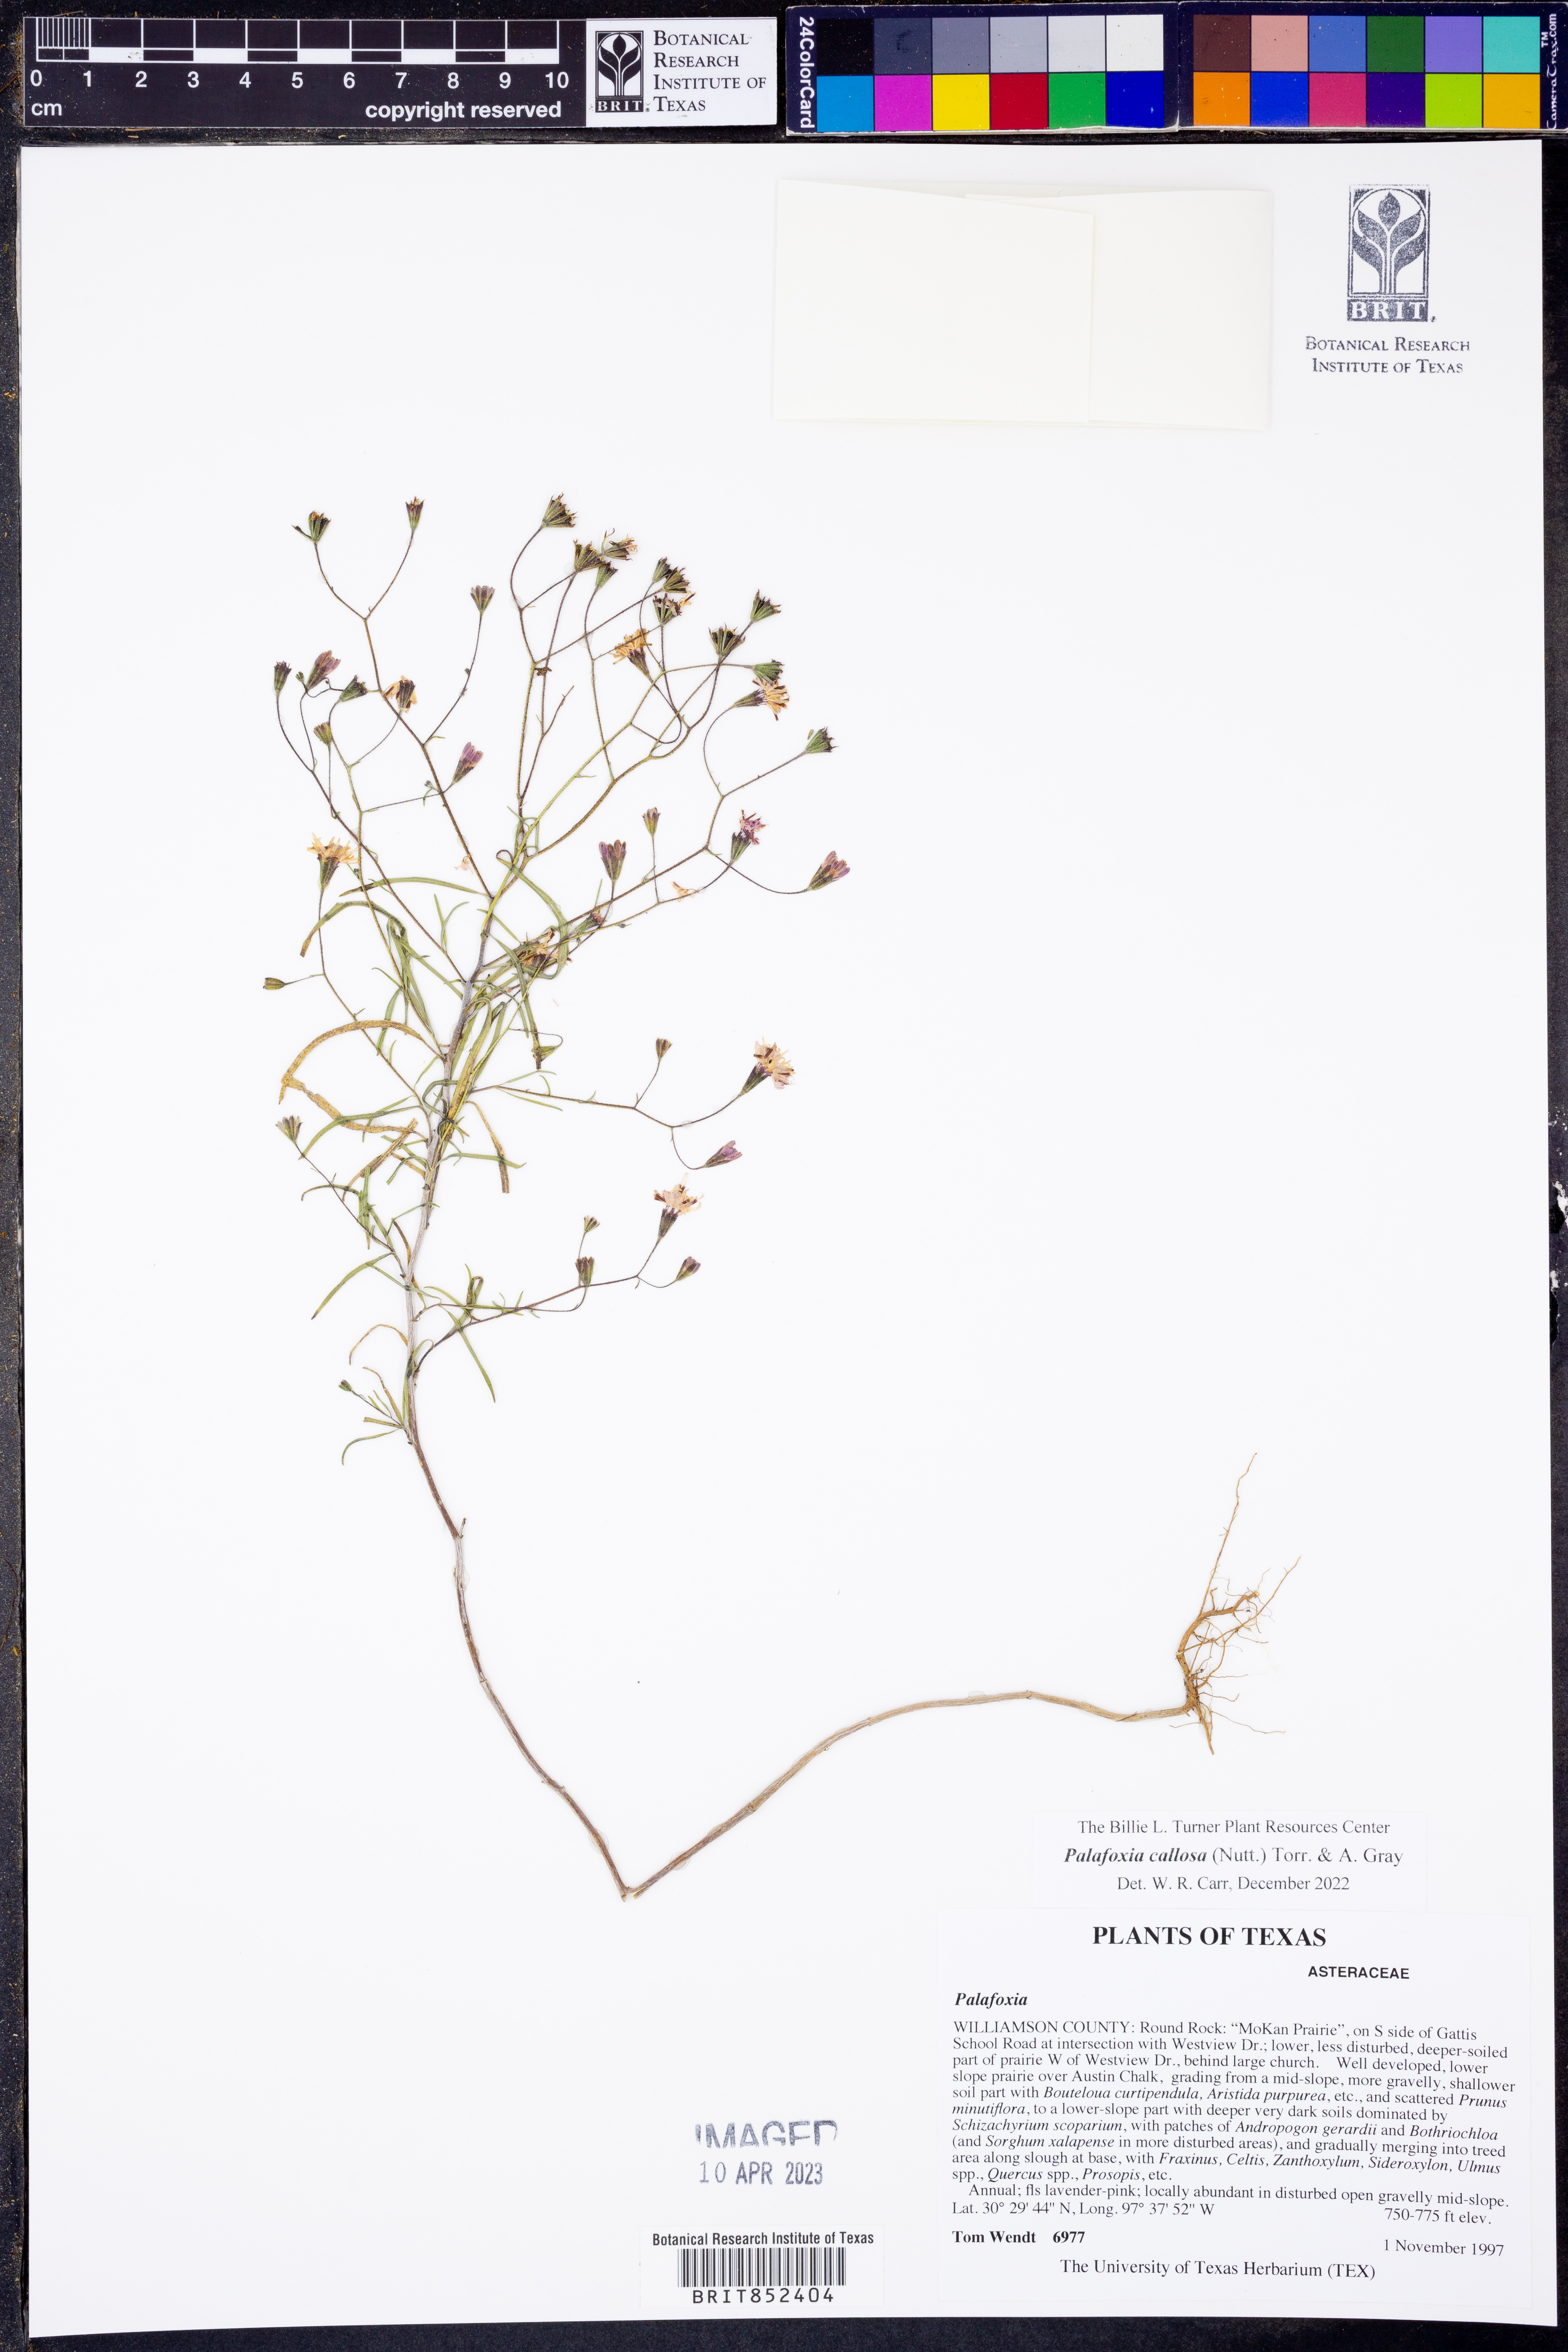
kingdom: Plantae
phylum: Tracheophyta
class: Magnoliopsida
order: Asterales
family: Asteraceae
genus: Palafoxia
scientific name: Palafoxia callosa
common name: Small palafox
